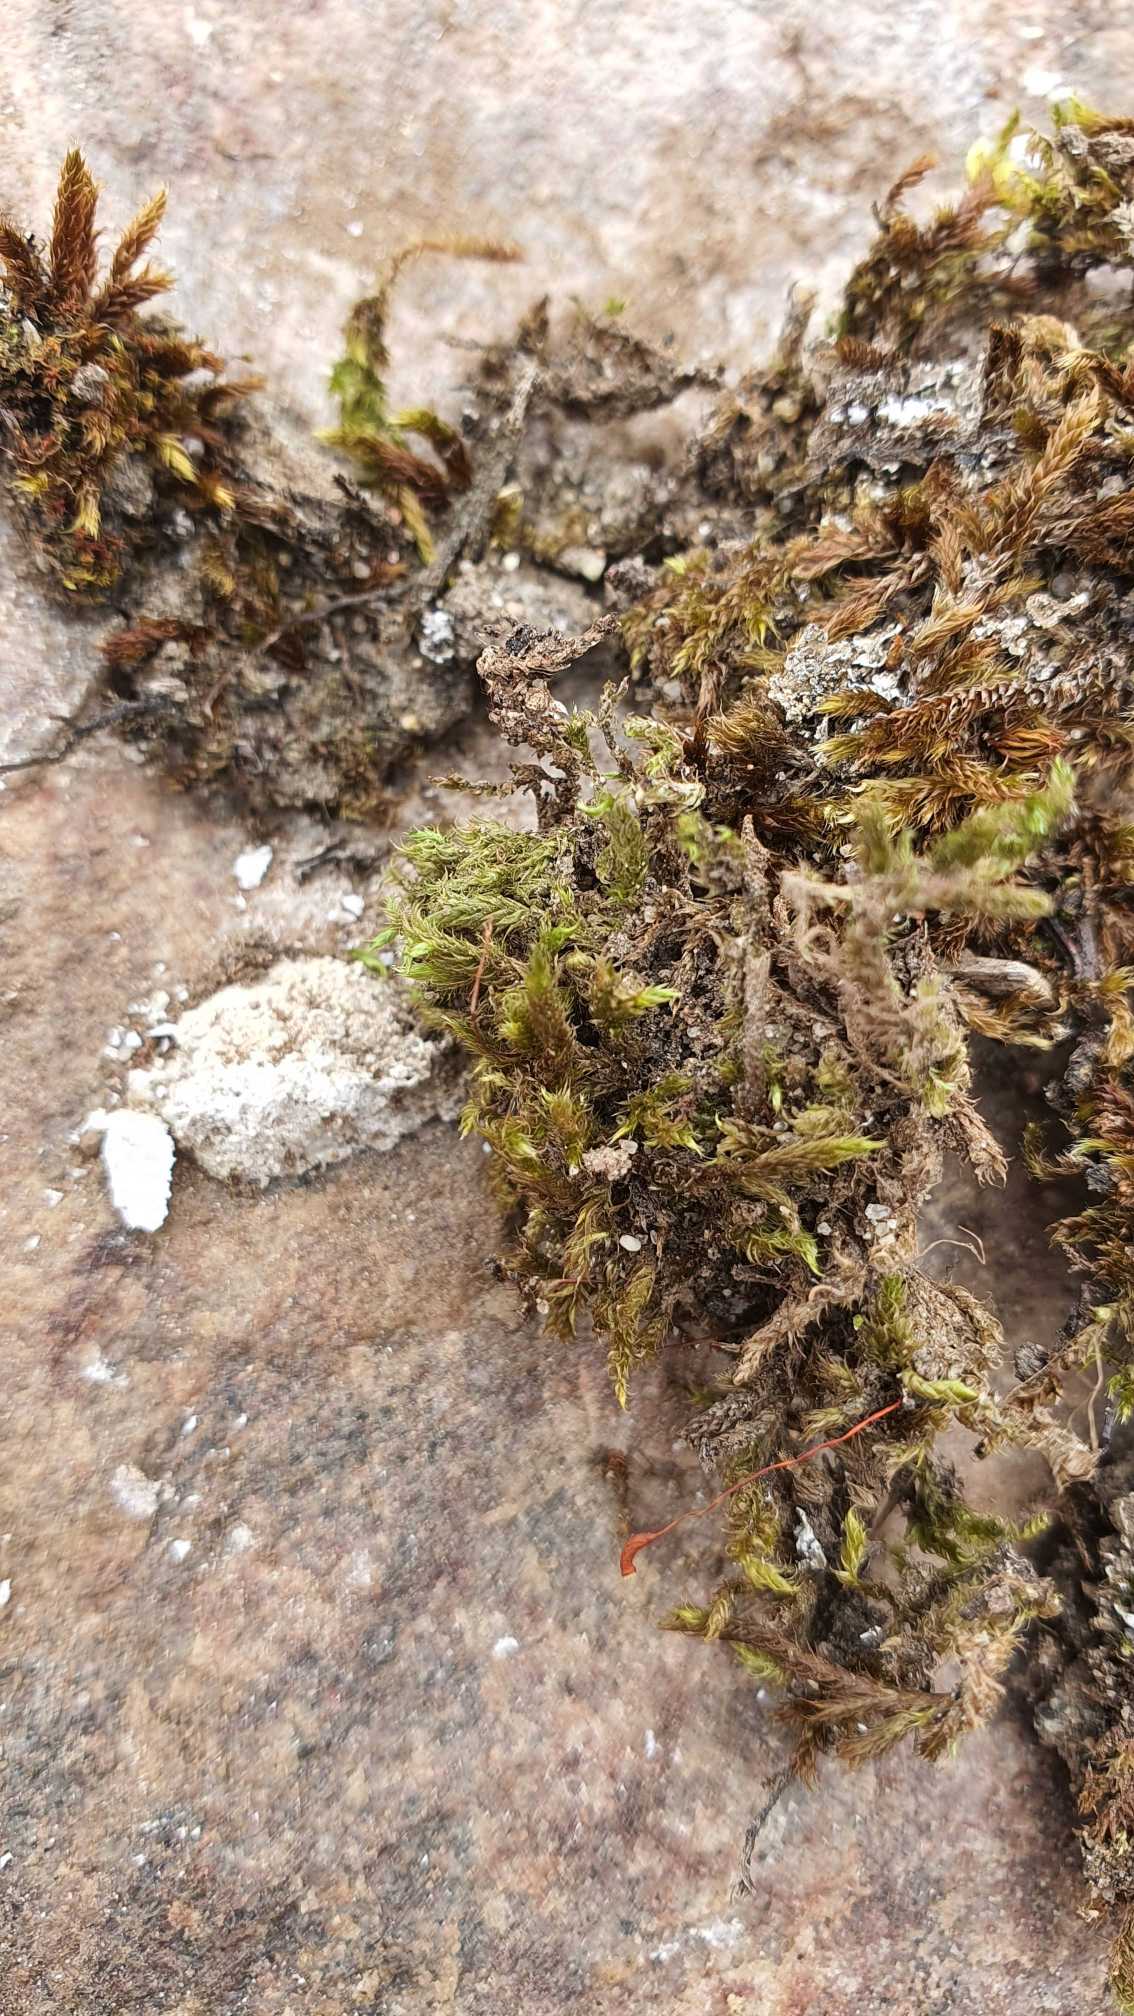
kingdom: Plantae
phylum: Bryophyta
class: Bryopsida
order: Hypnales
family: Hypnaceae
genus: Hypnum
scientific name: Hypnum cupressiforme
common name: Almindelig cypresmos
